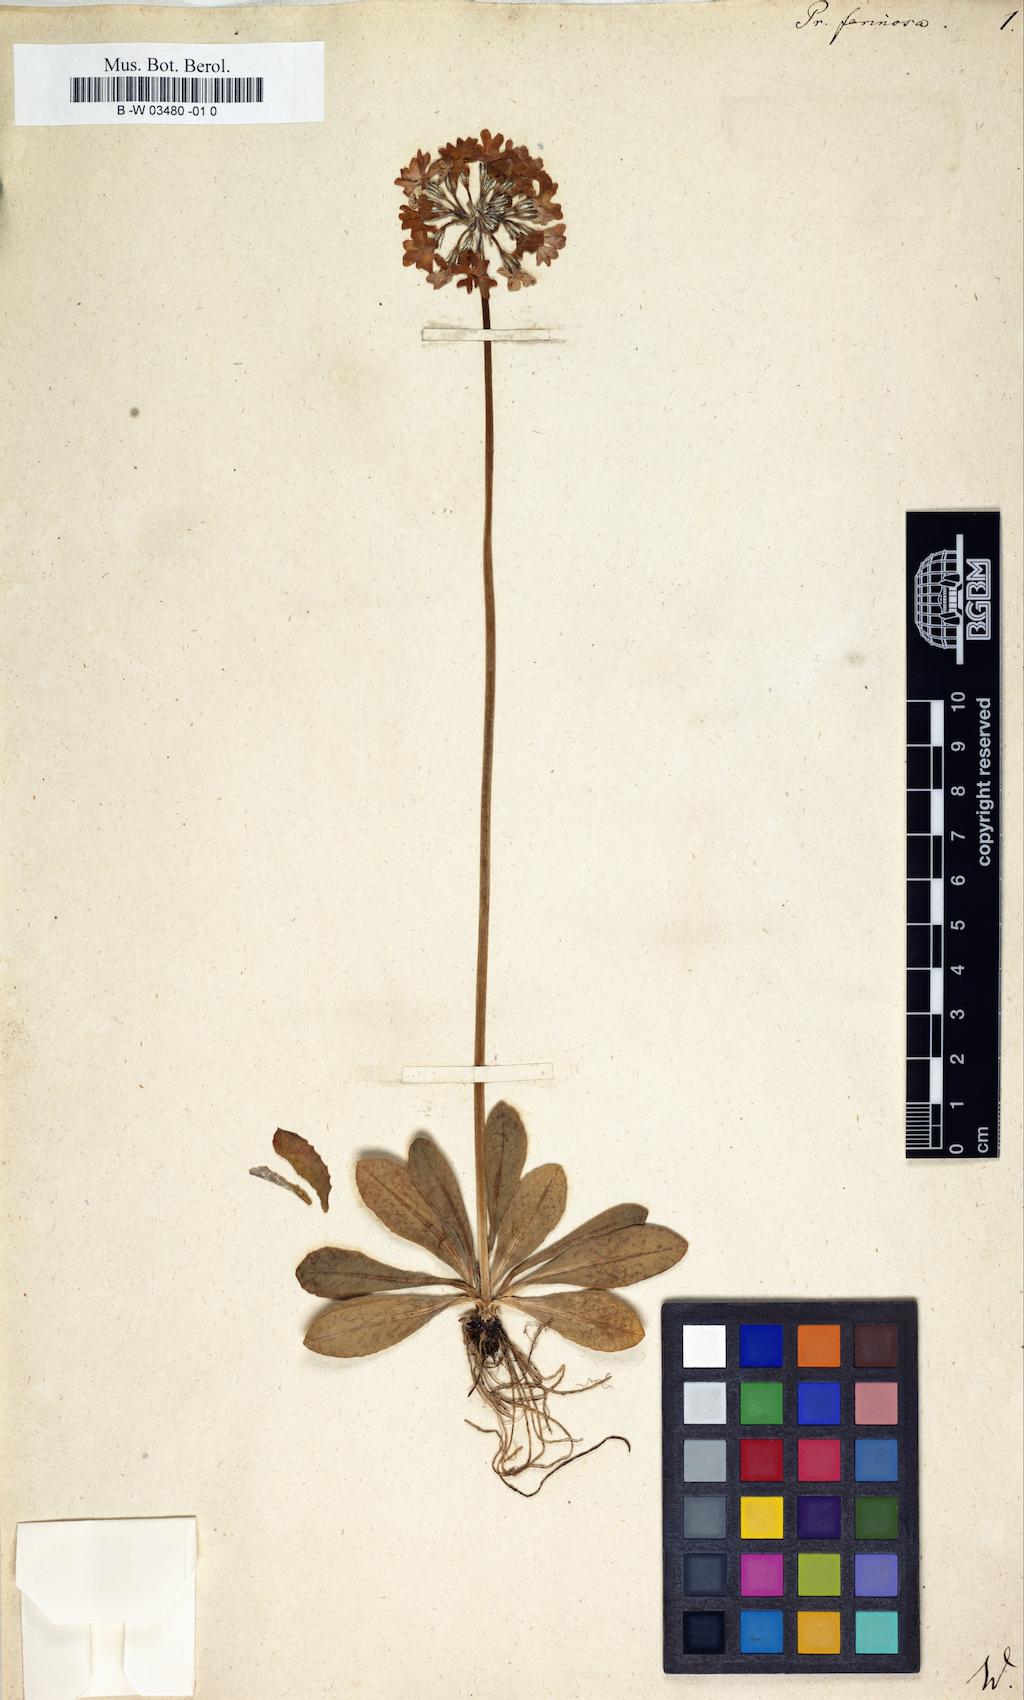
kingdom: Plantae
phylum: Tracheophyta
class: Magnoliopsida
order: Ericales
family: Primulaceae
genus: Primula
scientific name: Primula farinosa
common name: Bird's-eye primrose
